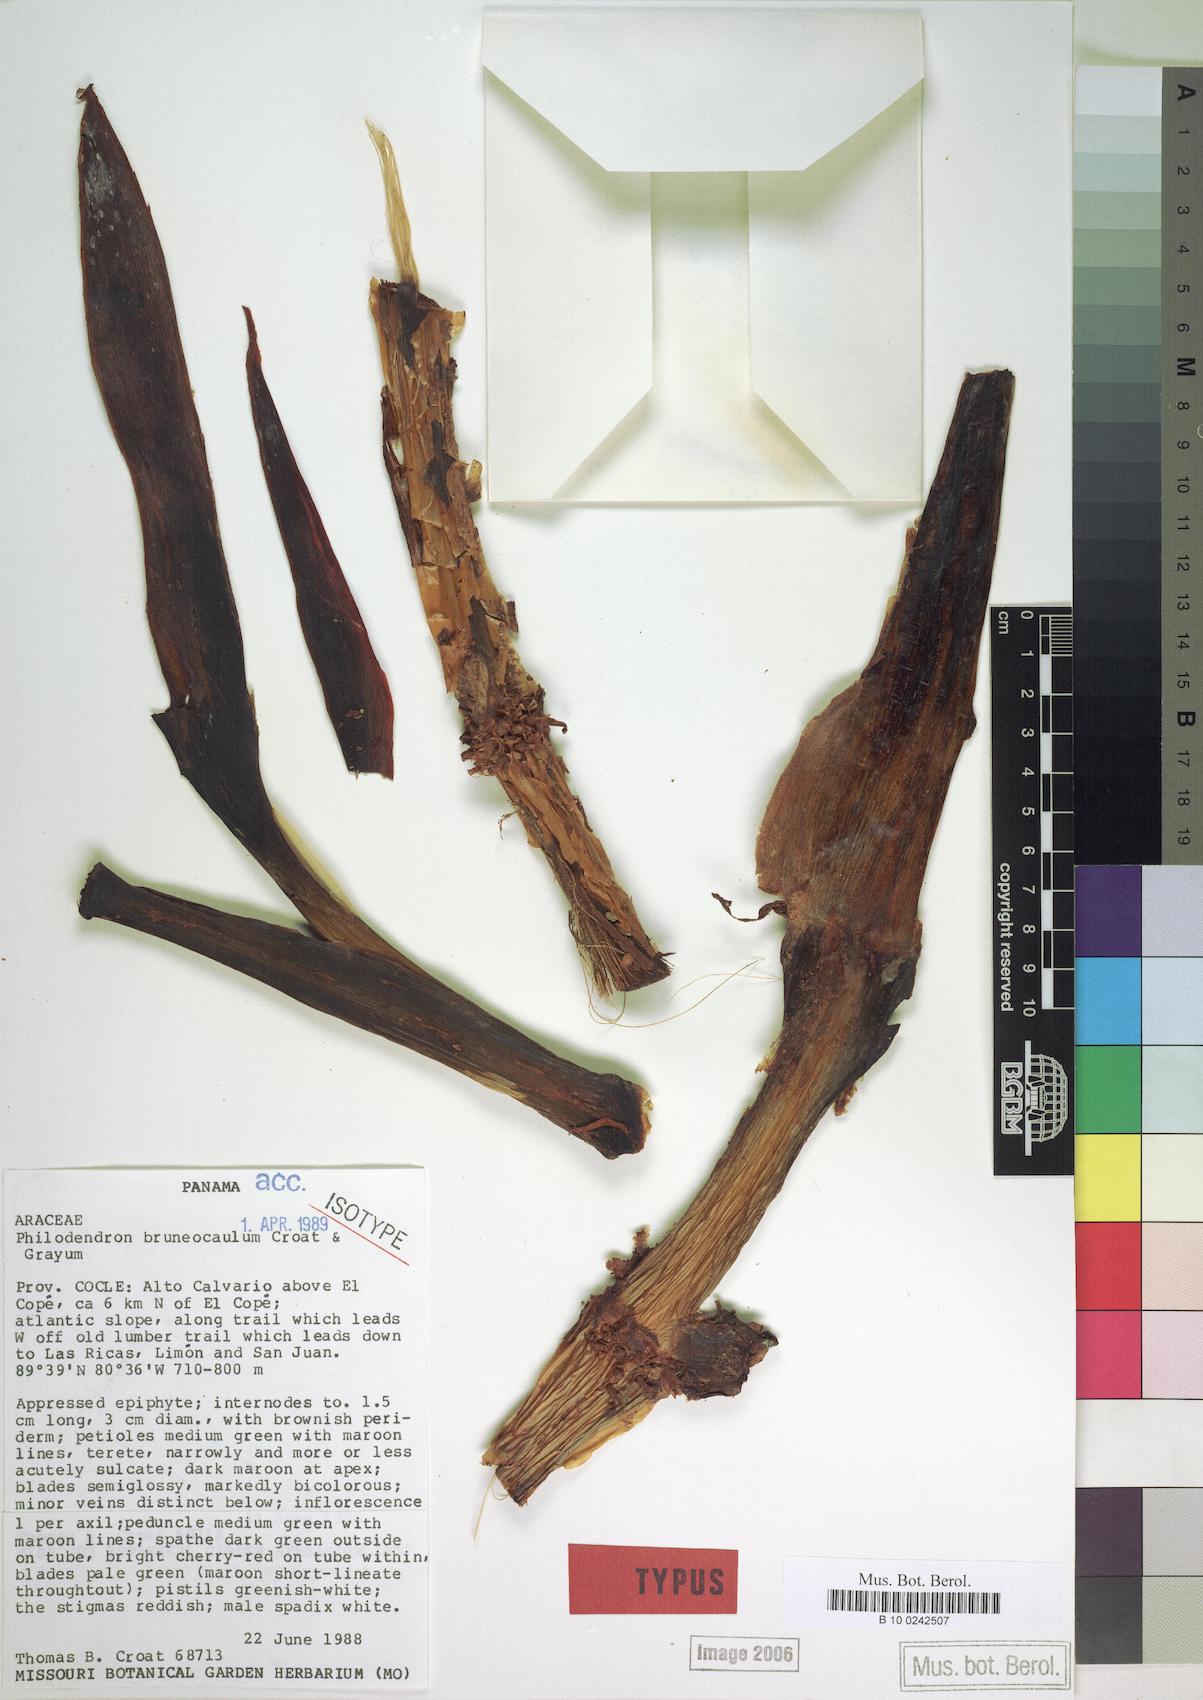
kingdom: Plantae
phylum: Tracheophyta
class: Liliopsida
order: Alismatales
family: Araceae
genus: Philodendron
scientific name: Philodendron brunneicaule
